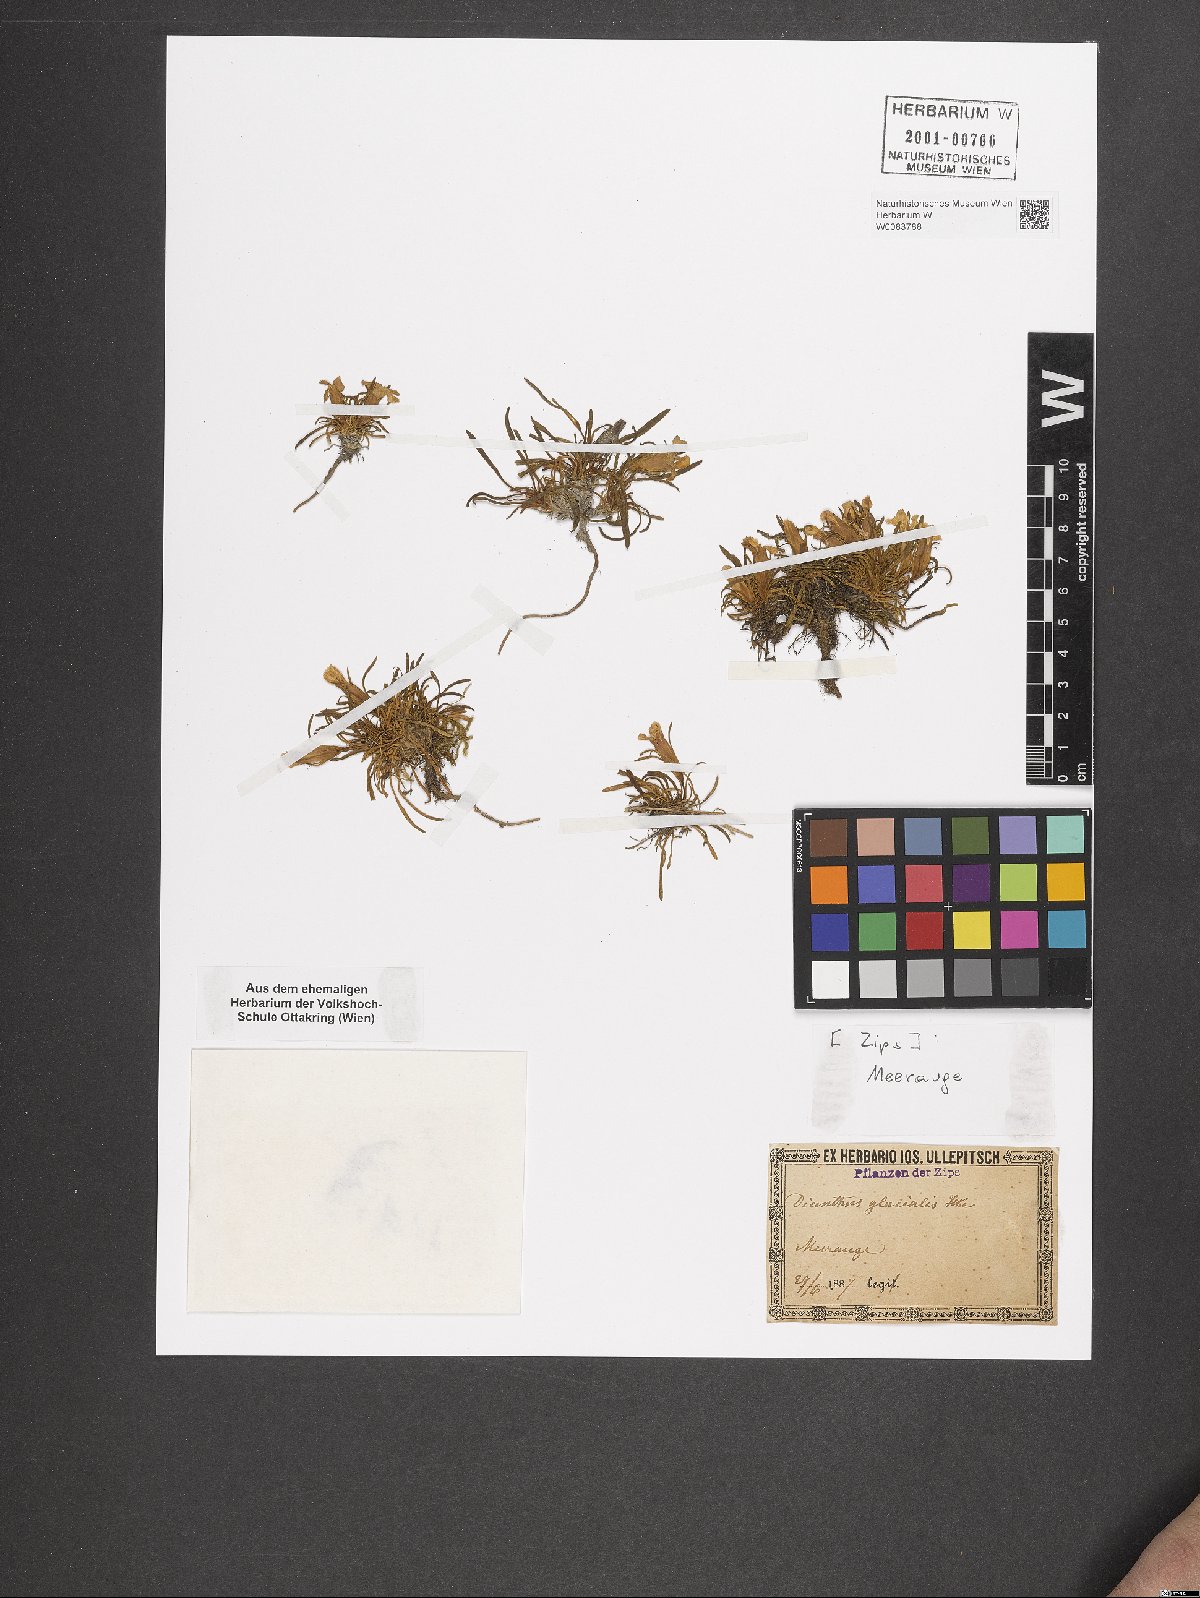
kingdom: Plantae
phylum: Tracheophyta
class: Magnoliopsida
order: Caryophyllales
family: Caryophyllaceae
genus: Dianthus
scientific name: Dianthus glacialis
